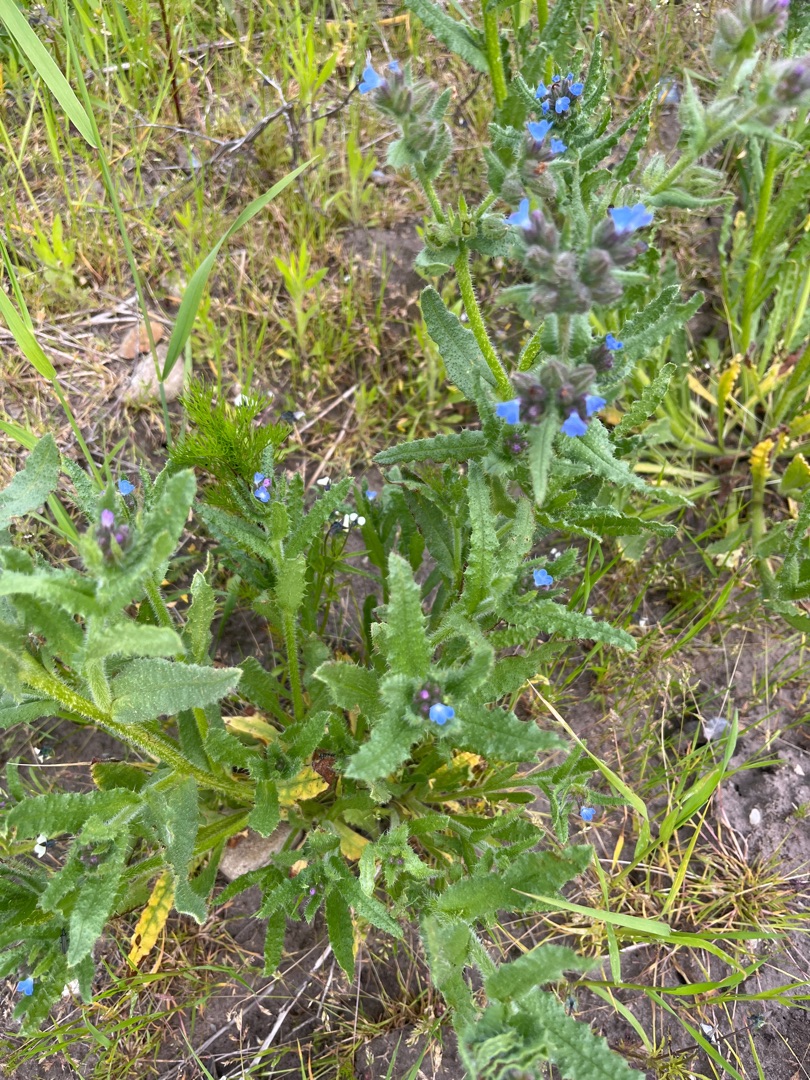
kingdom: Plantae
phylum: Tracheophyta
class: Magnoliopsida
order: Boraginales
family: Boraginaceae
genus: Lycopsis
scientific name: Lycopsis arvensis
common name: Krumhals
